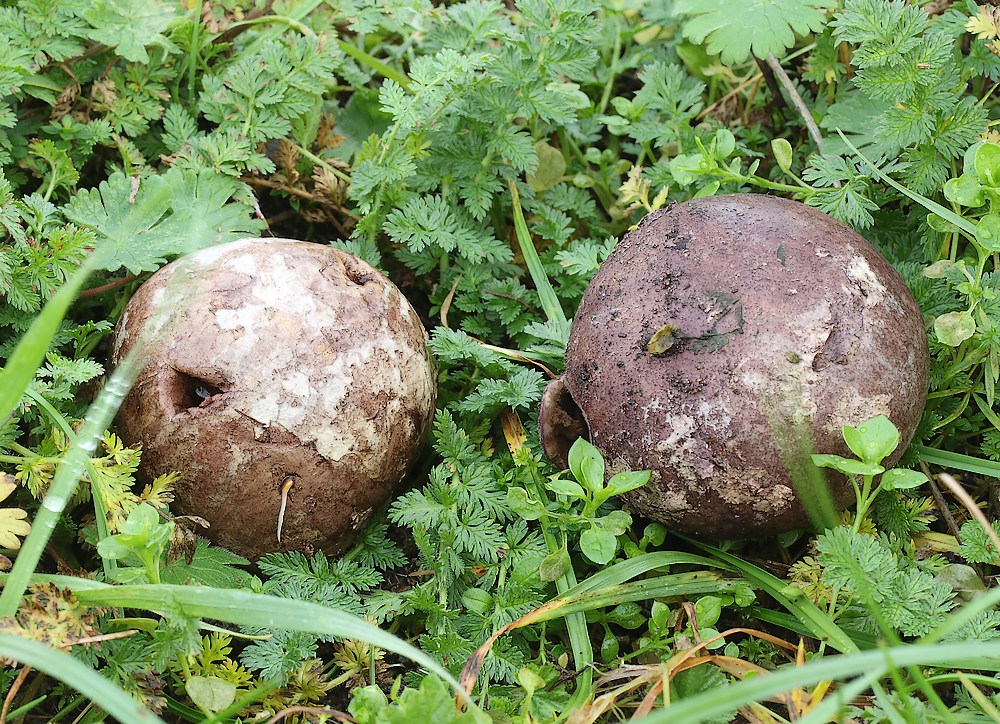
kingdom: Fungi
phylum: Basidiomycota
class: Agaricomycetes
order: Agaricales
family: Agaricaceae
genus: Mycenastrum
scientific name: Mycenastrum corium
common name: læderbold
